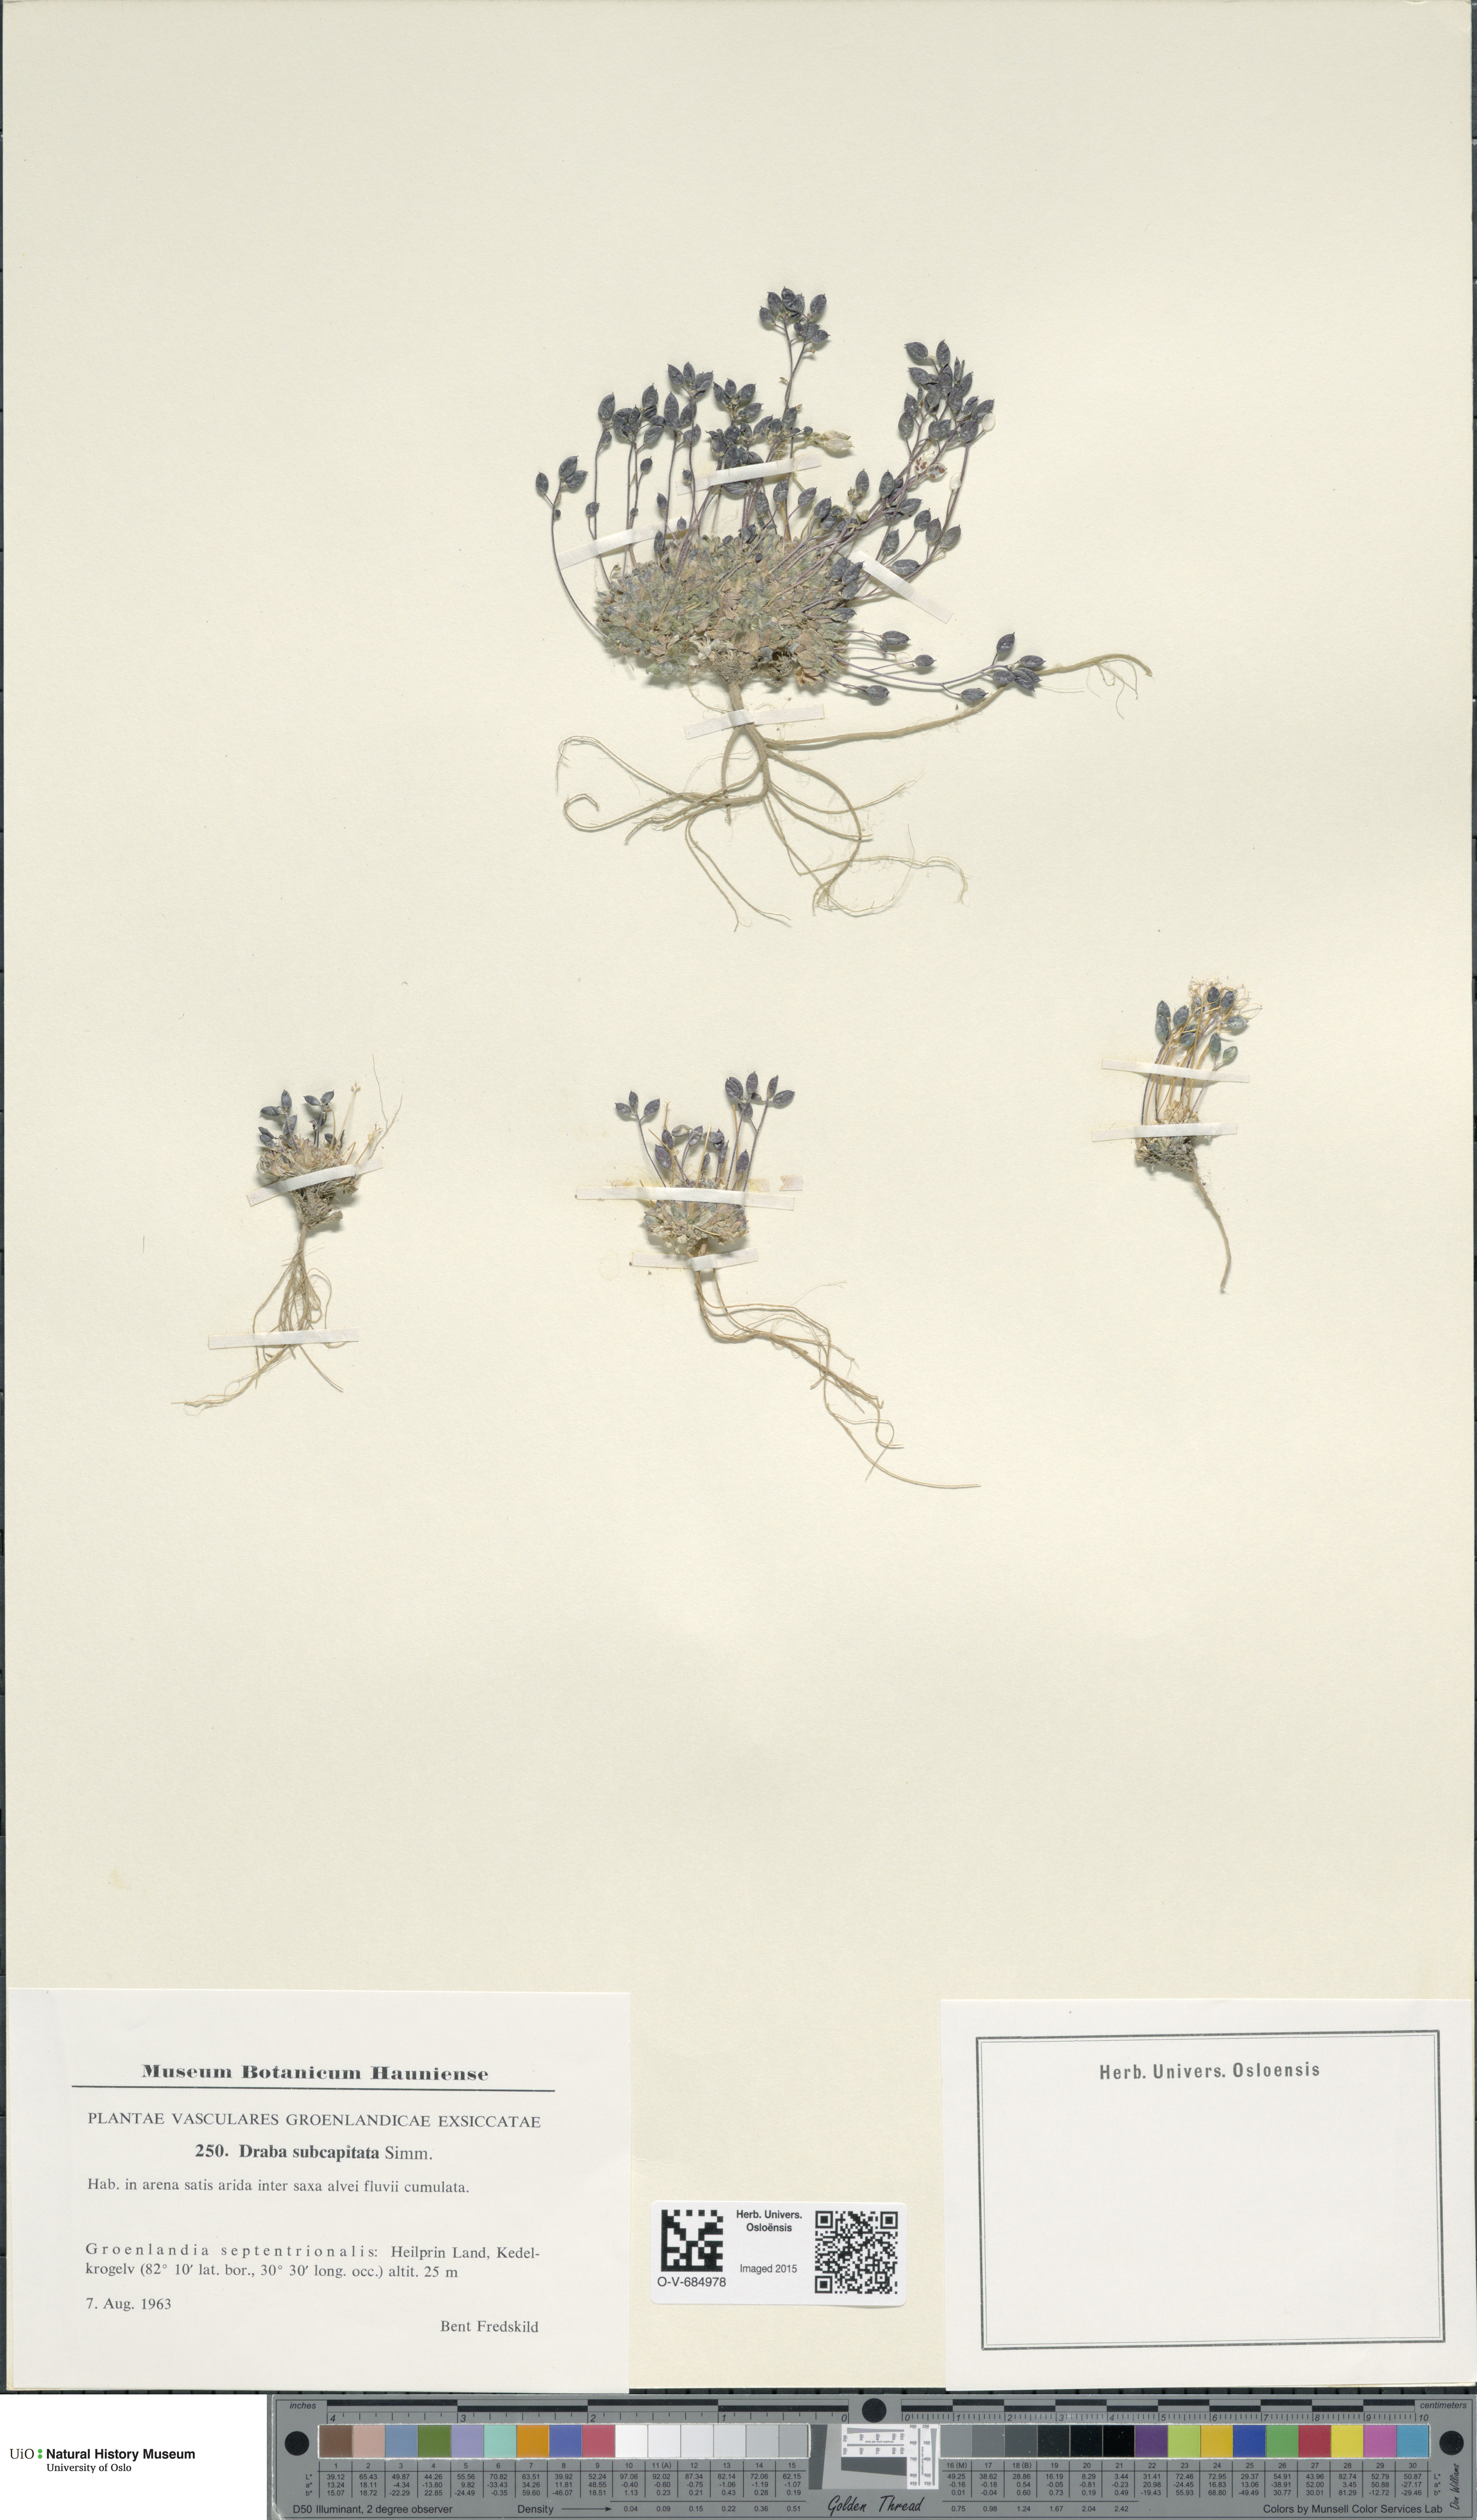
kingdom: Plantae
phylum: Tracheophyta
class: Magnoliopsida
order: Brassicales
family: Brassicaceae
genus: Draba
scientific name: Draba subcapitata
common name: Ellesmere island draba
